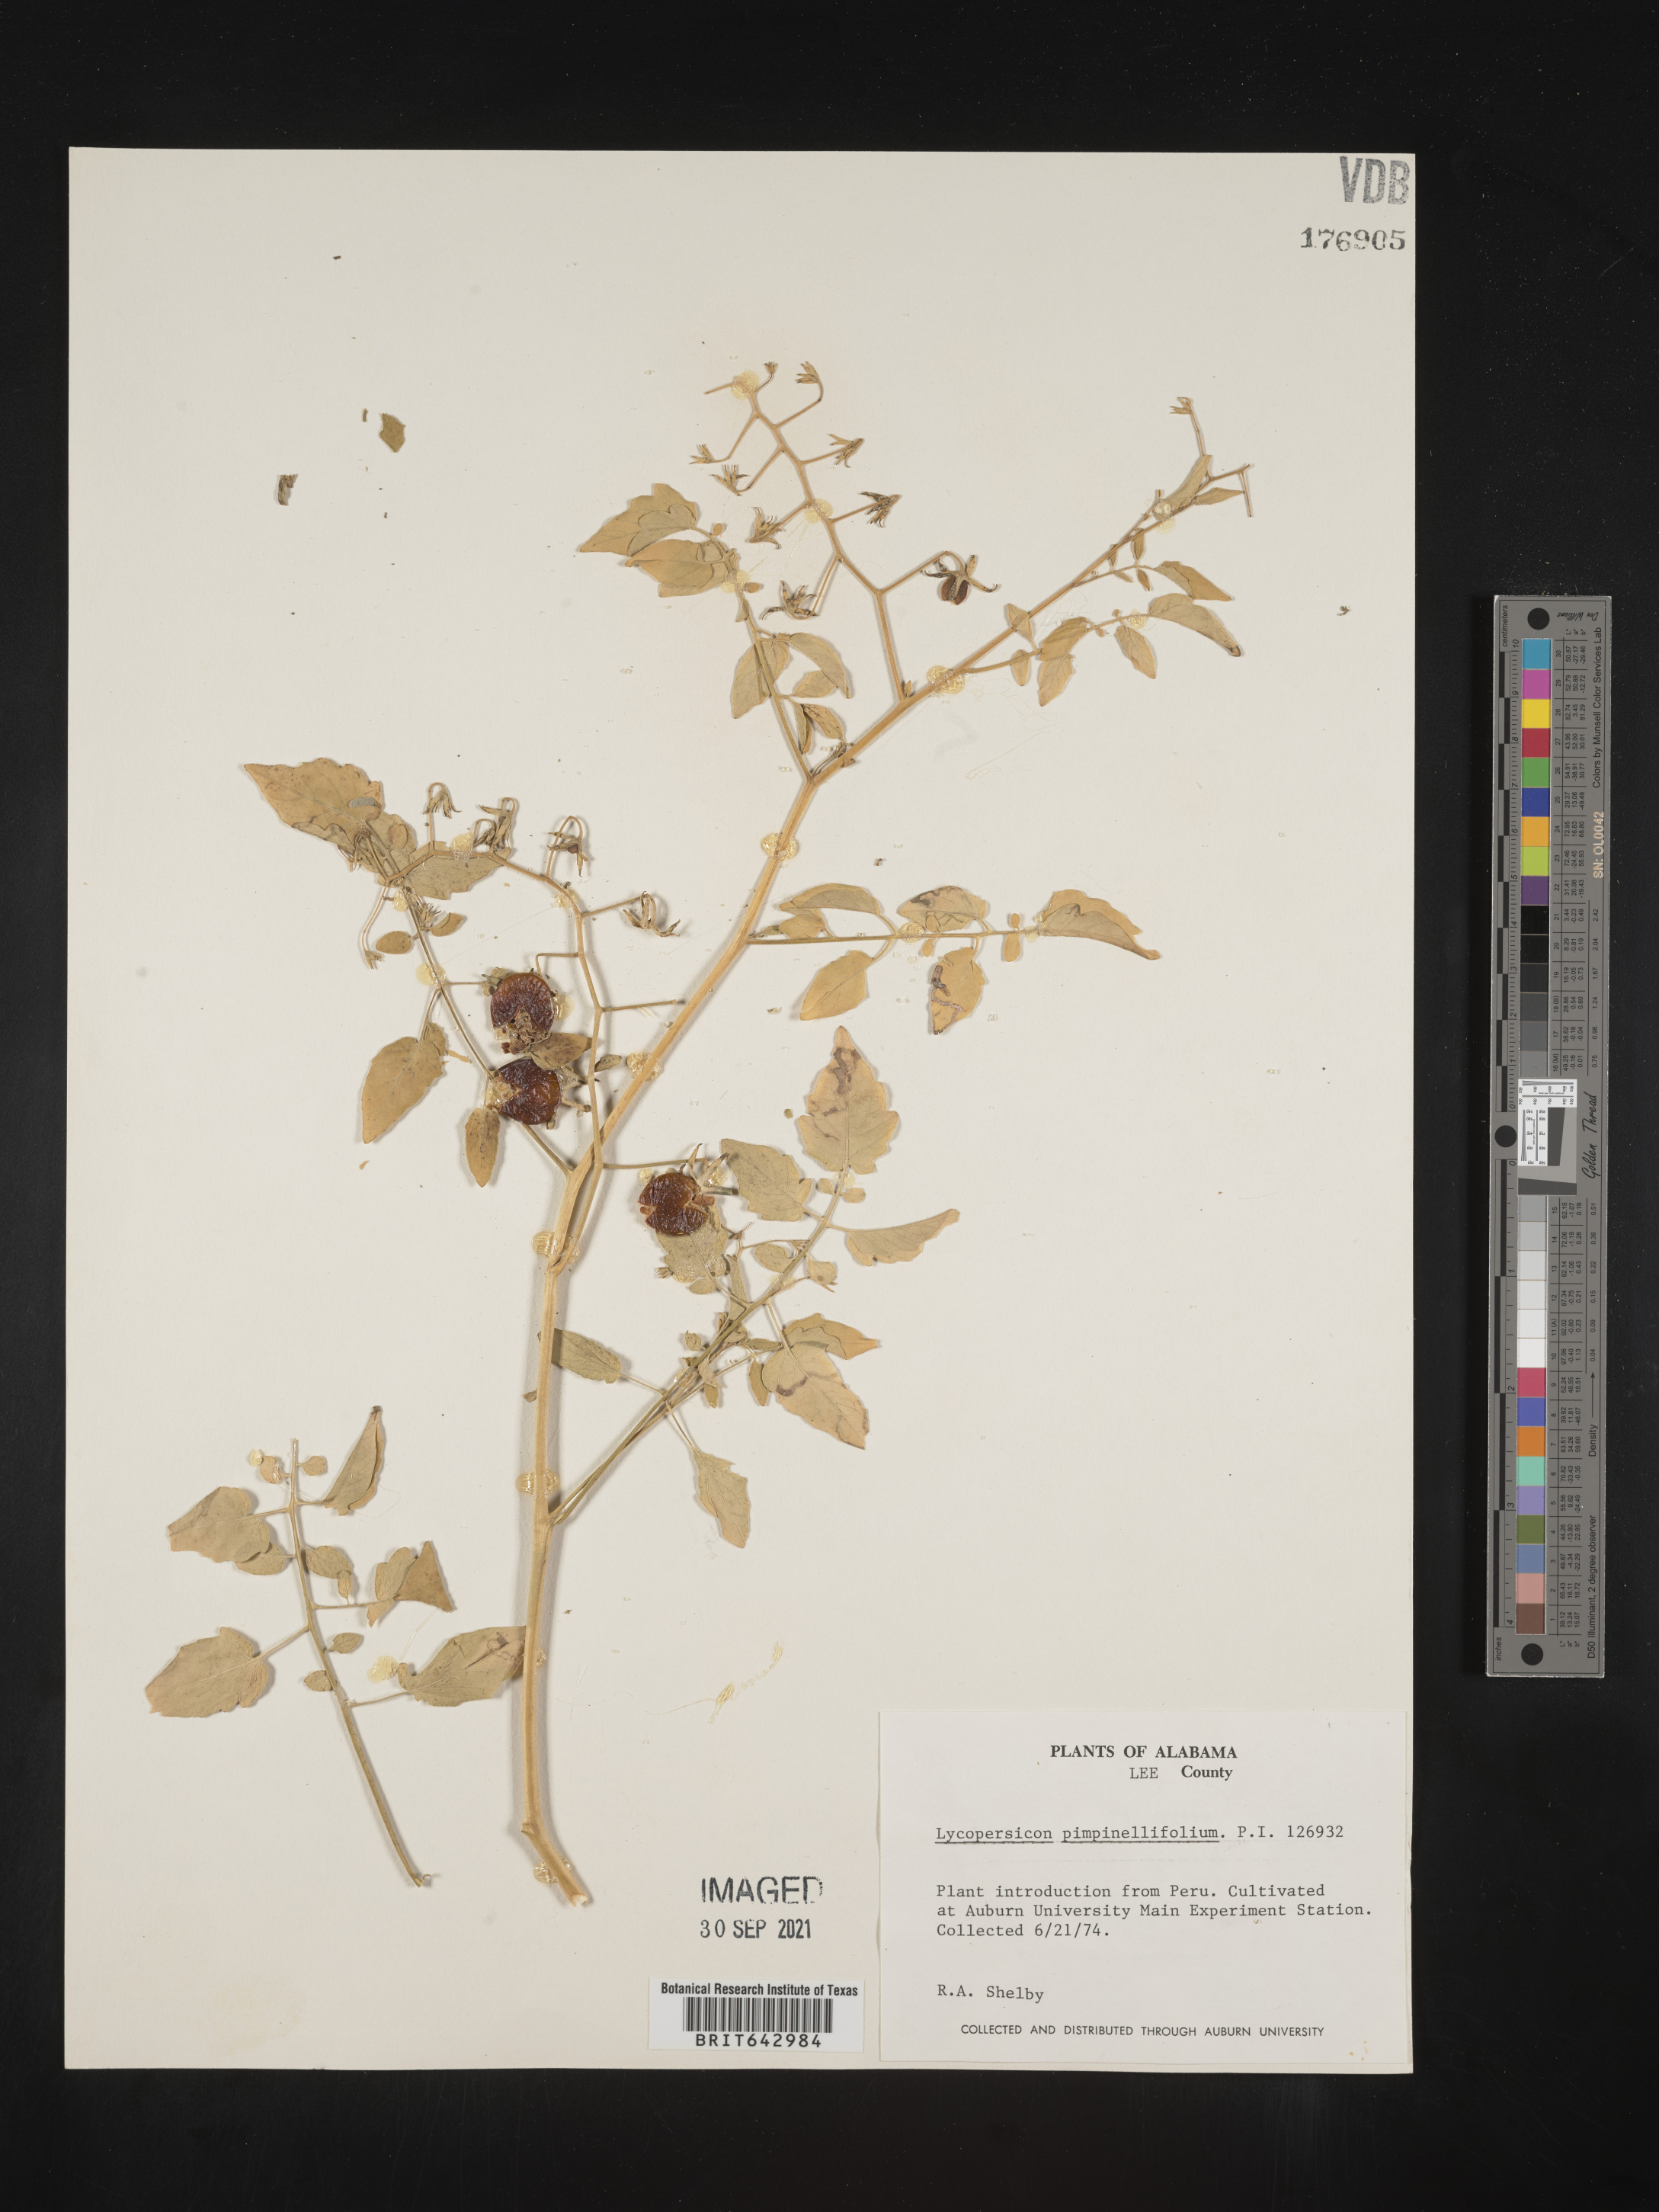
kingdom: Plantae
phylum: Tracheophyta
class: Magnoliopsida
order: Solanales
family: Solanaceae
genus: Lycopersicon
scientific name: Lycopersicon
